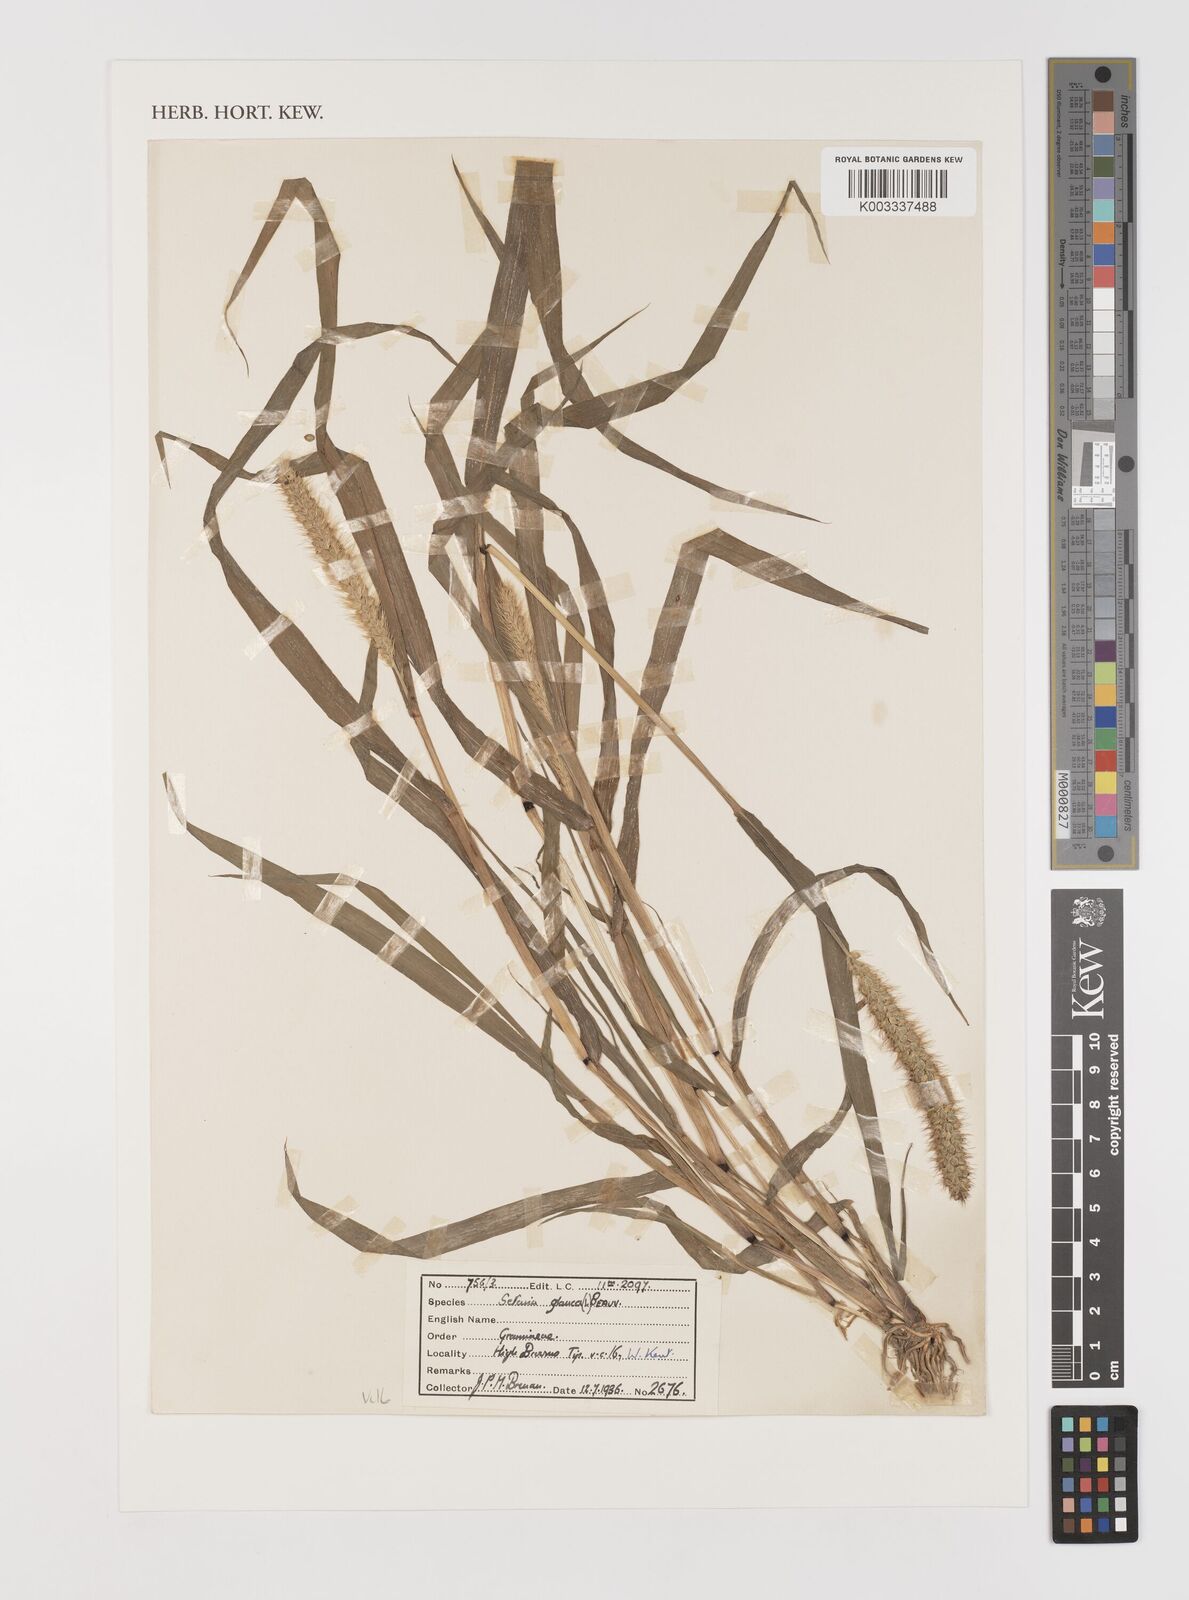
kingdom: Plantae
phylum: Tracheophyta
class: Liliopsida
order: Poales
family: Poaceae
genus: Setaria
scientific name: Setaria pumila
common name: Yellow bristle-grass
